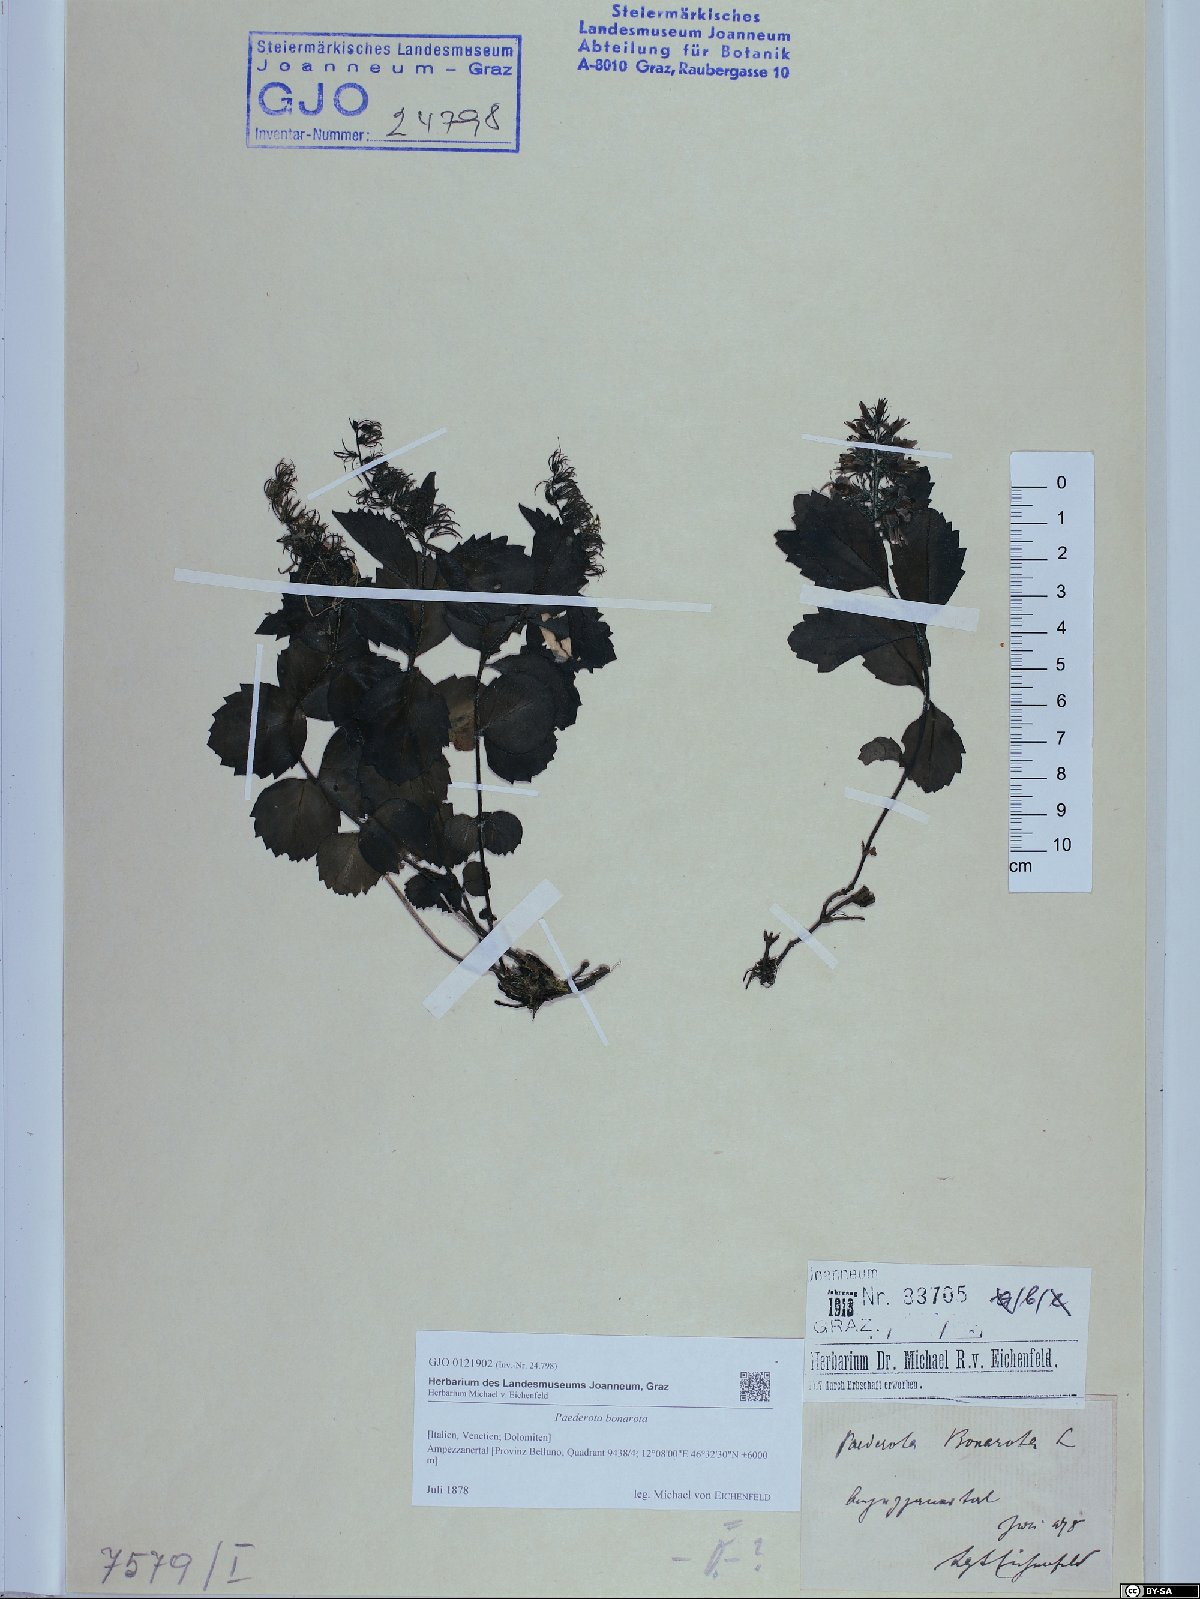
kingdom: Plantae
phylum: Tracheophyta
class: Magnoliopsida
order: Lamiales
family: Plantaginaceae
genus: Paederota
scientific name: Paederota bonarota
